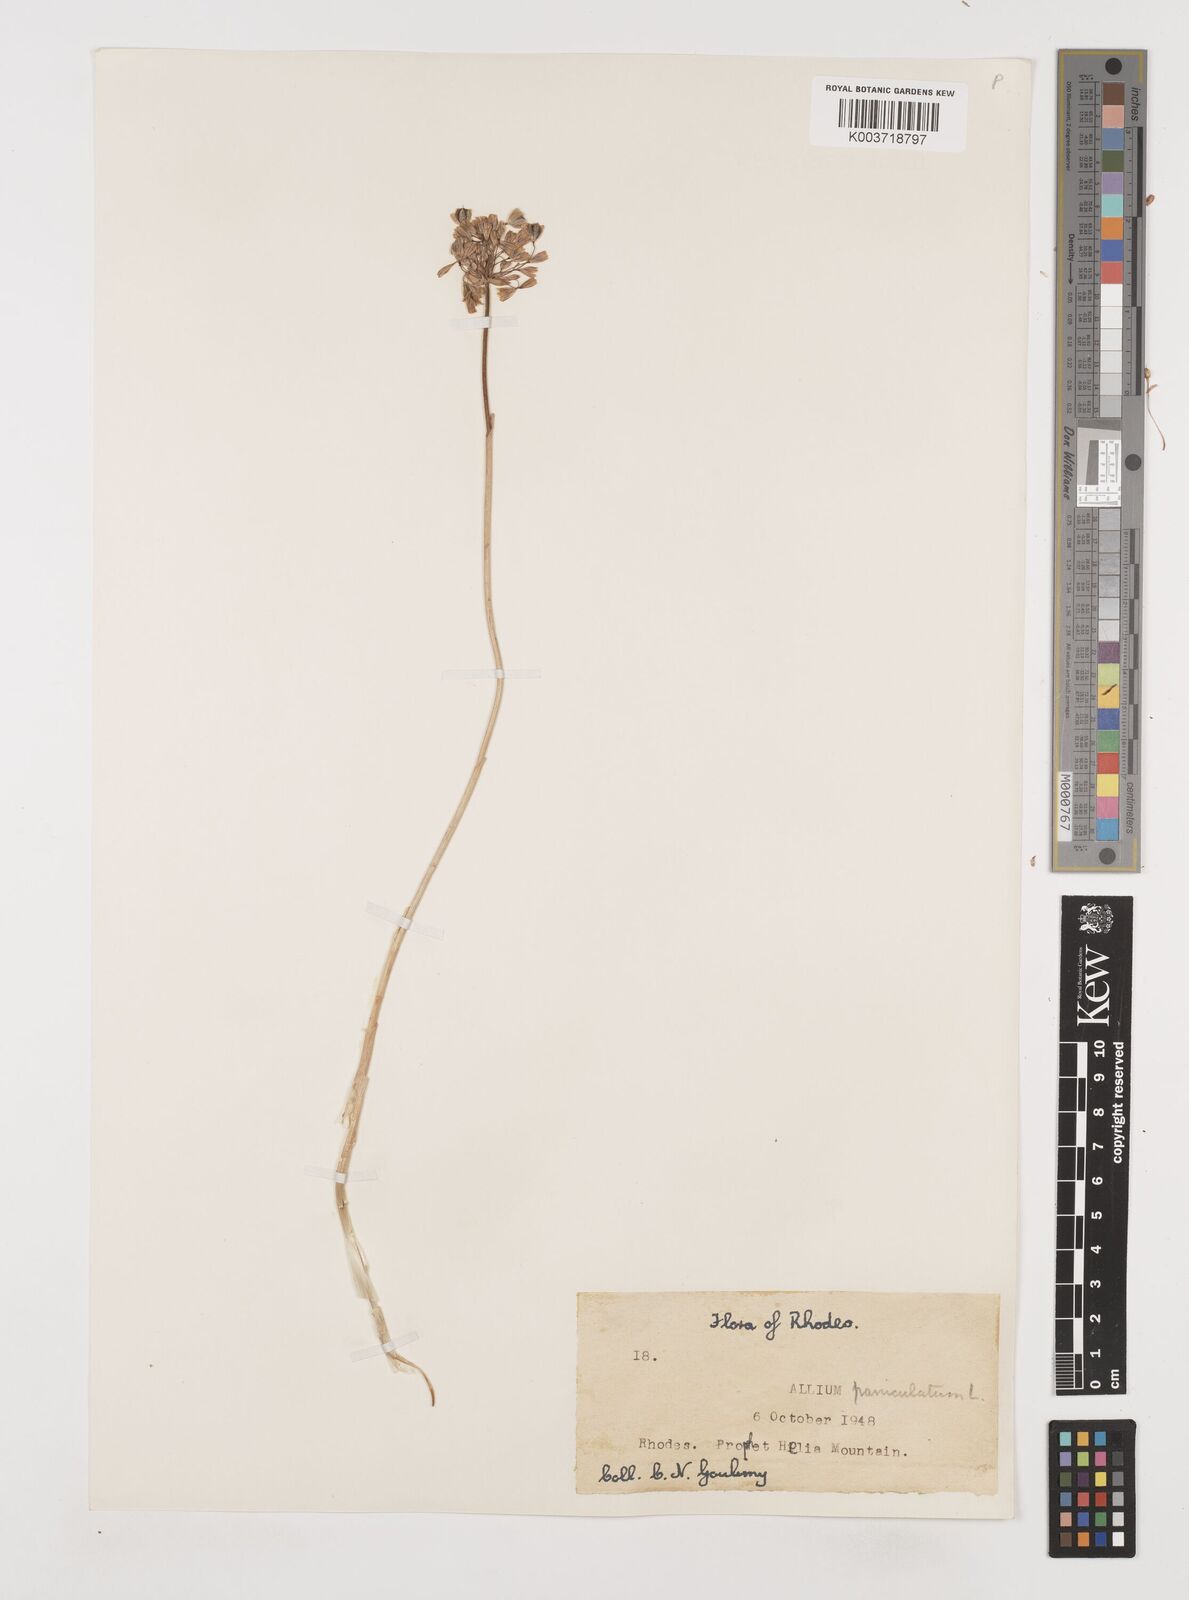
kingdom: Plantae
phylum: Tracheophyta
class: Liliopsida
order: Asparagales
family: Amaryllidaceae
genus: Allium
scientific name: Allium paniculatum
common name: Pale garlic
